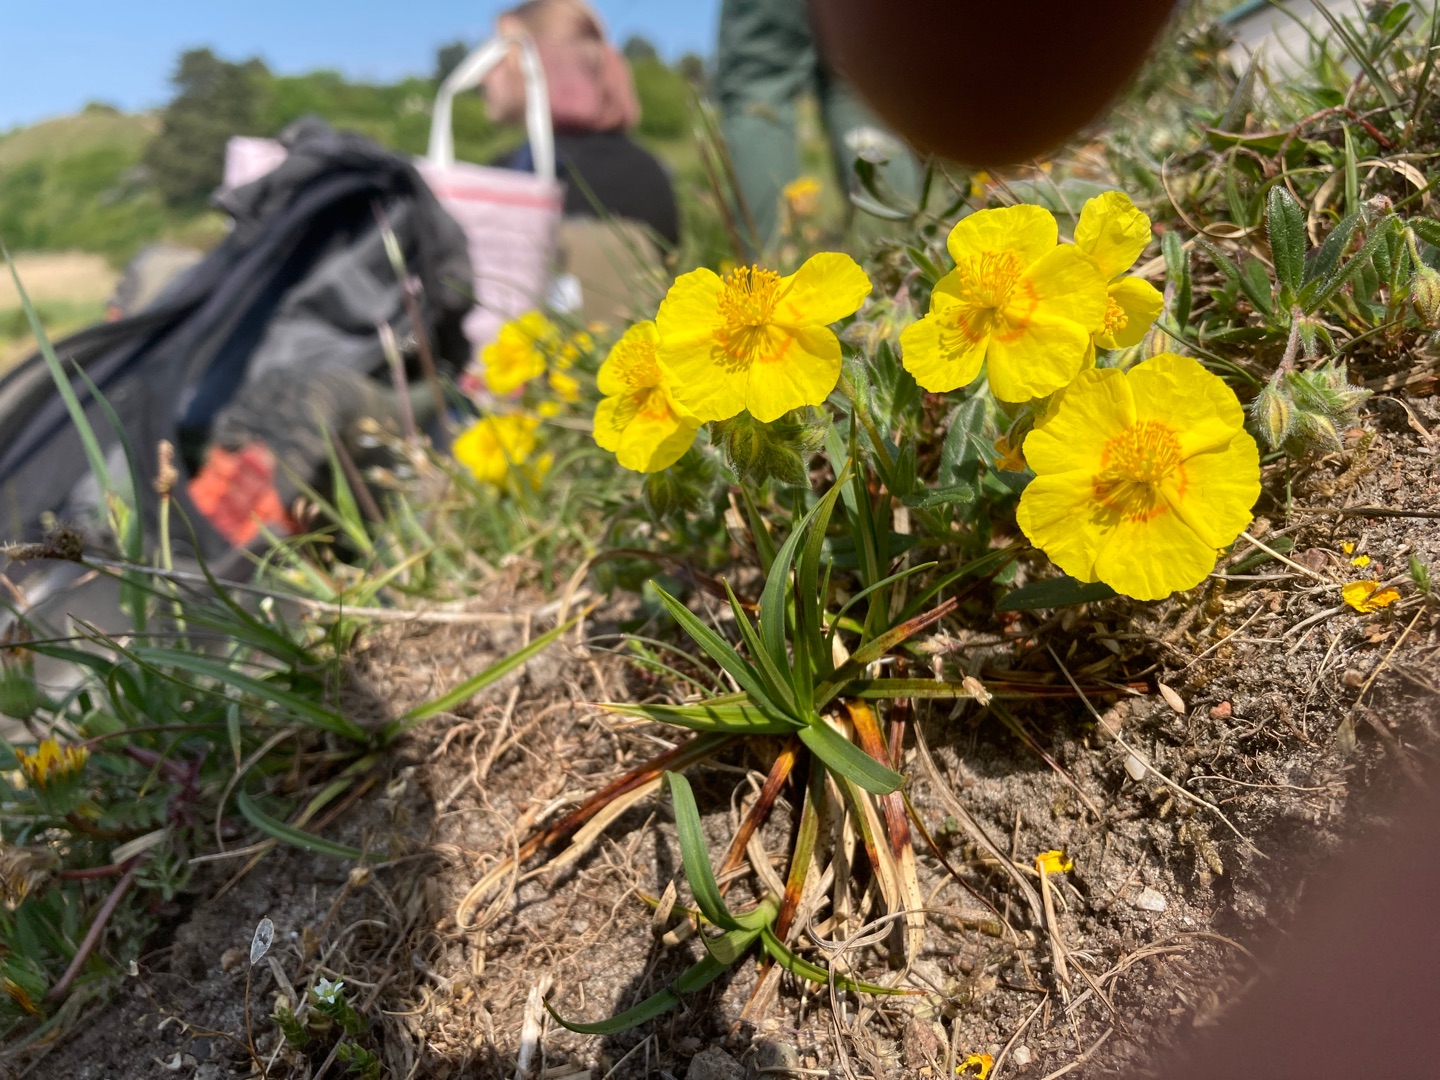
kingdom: Plantae
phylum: Tracheophyta
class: Magnoliopsida
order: Malvales
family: Cistaceae
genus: Helianthemum
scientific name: Helianthemum nummularium
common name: Bakke-soløje
